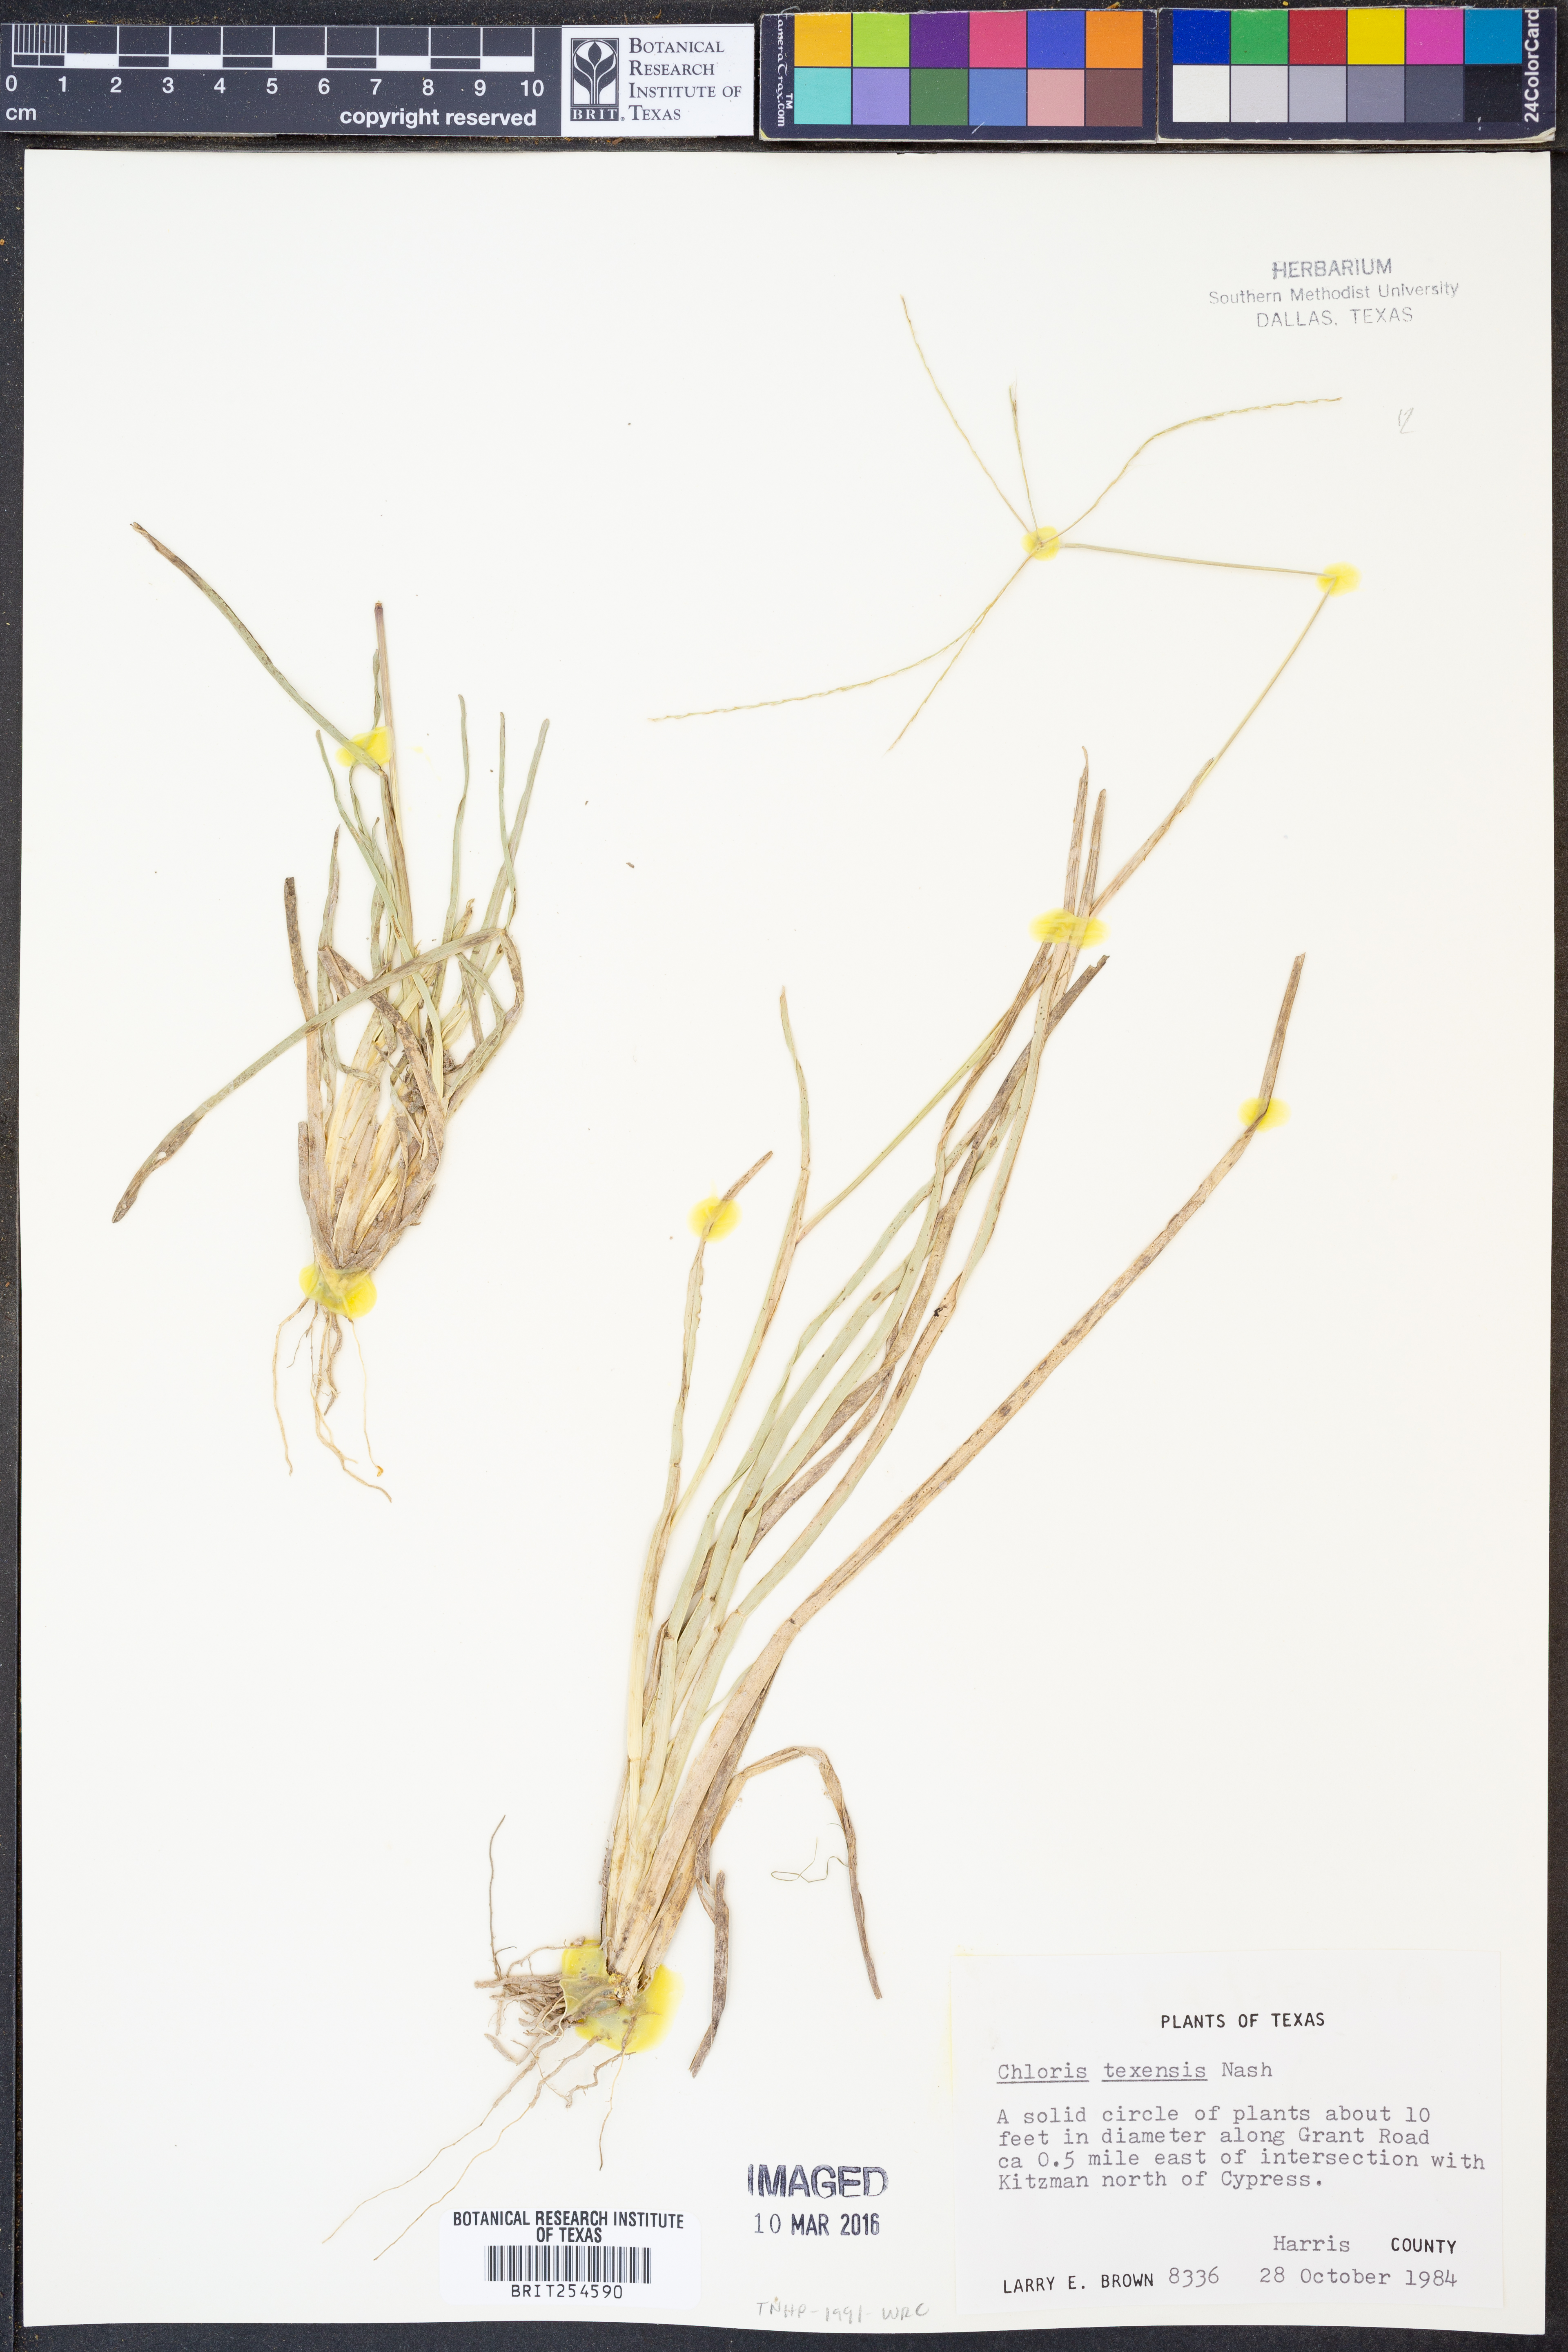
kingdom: Plantae
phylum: Tracheophyta
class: Liliopsida
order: Poales
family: Poaceae
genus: Chloris
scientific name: Chloris texensis
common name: Texas windmill grass
